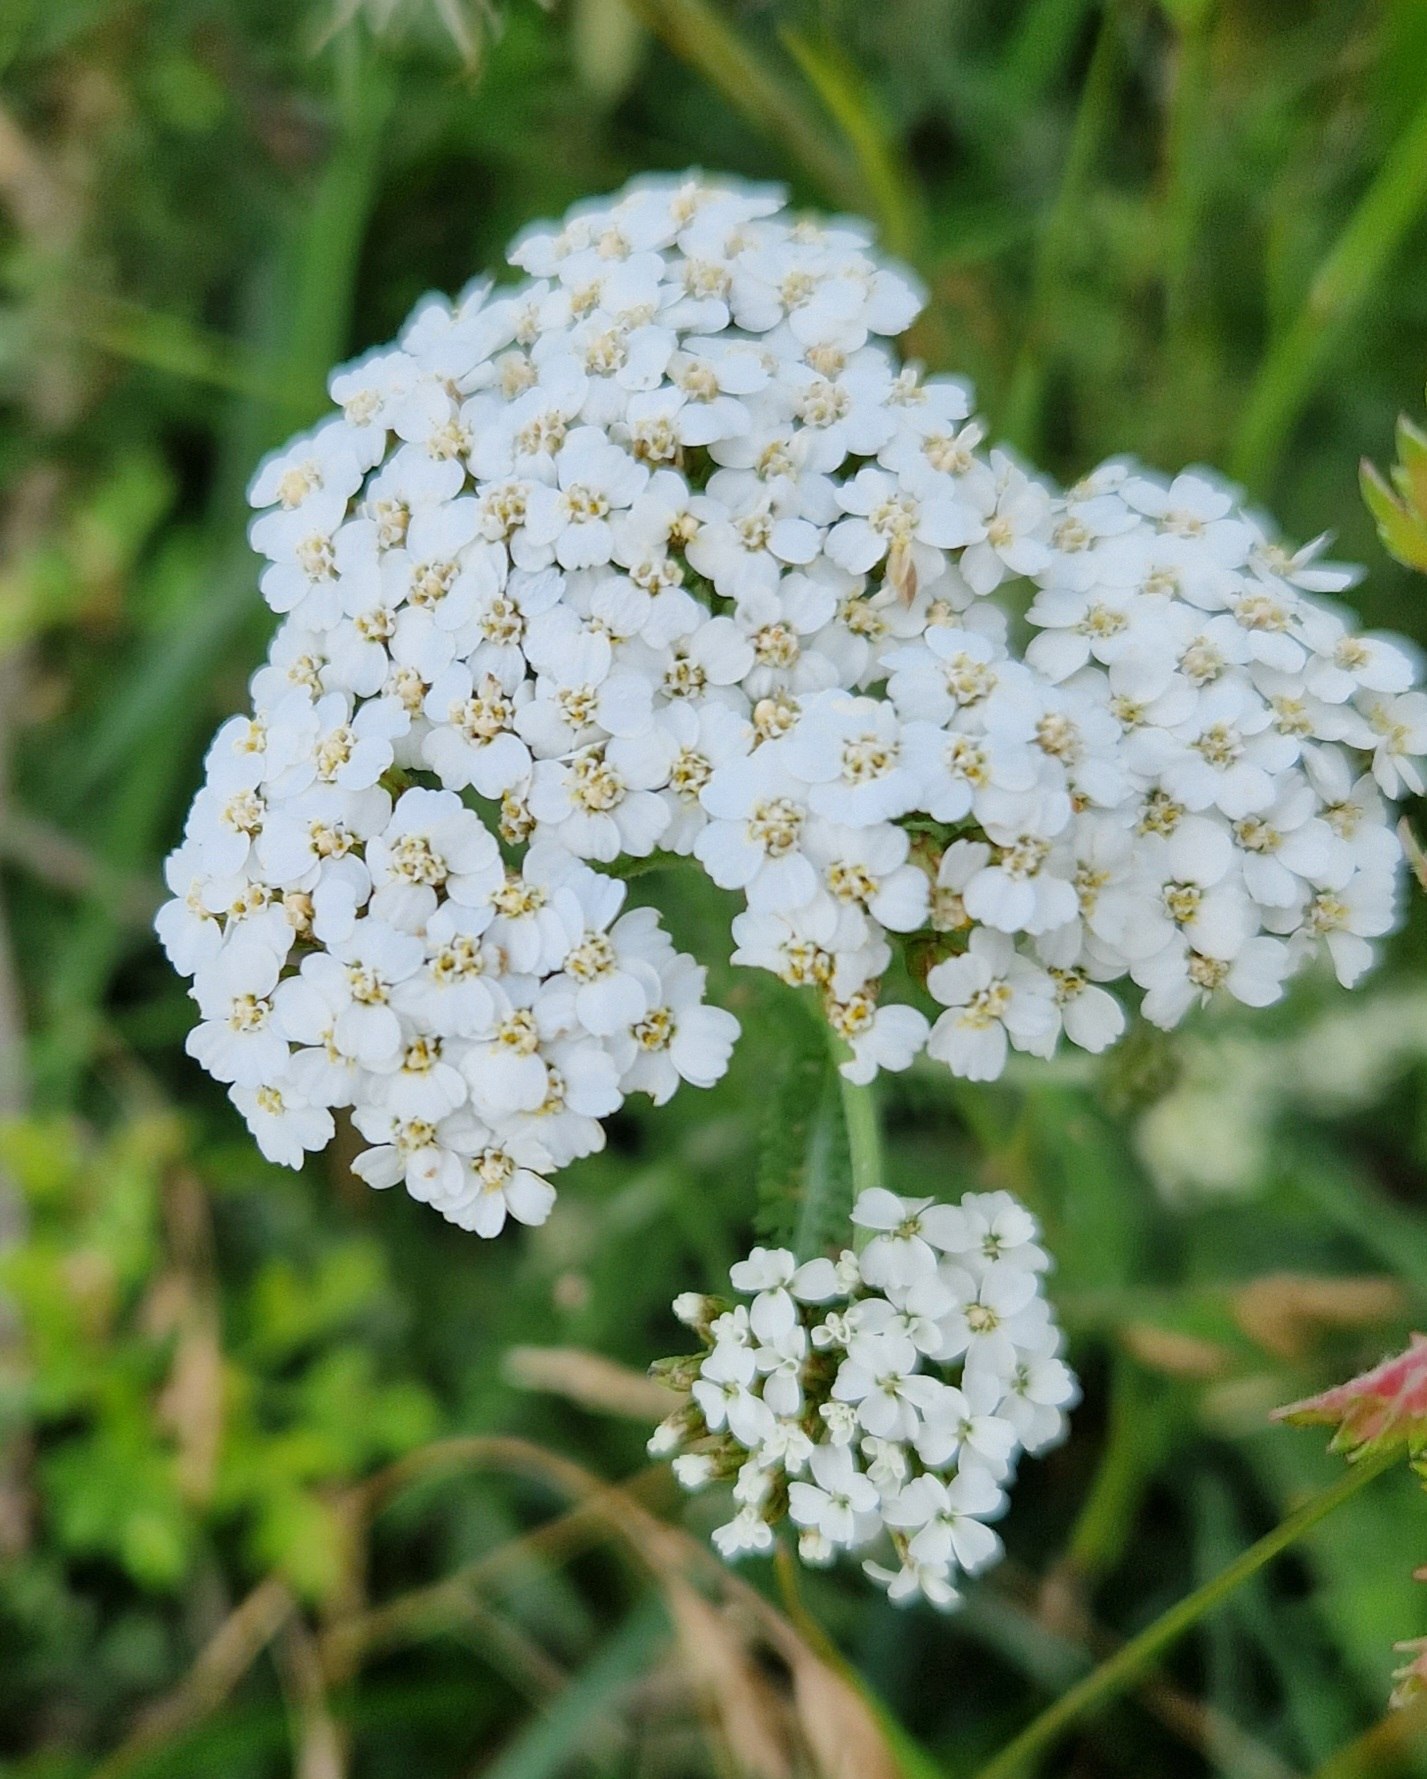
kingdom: Plantae
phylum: Tracheophyta
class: Magnoliopsida
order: Asterales
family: Asteraceae
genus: Achillea
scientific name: Achillea millefolium
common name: Almindelig røllike
